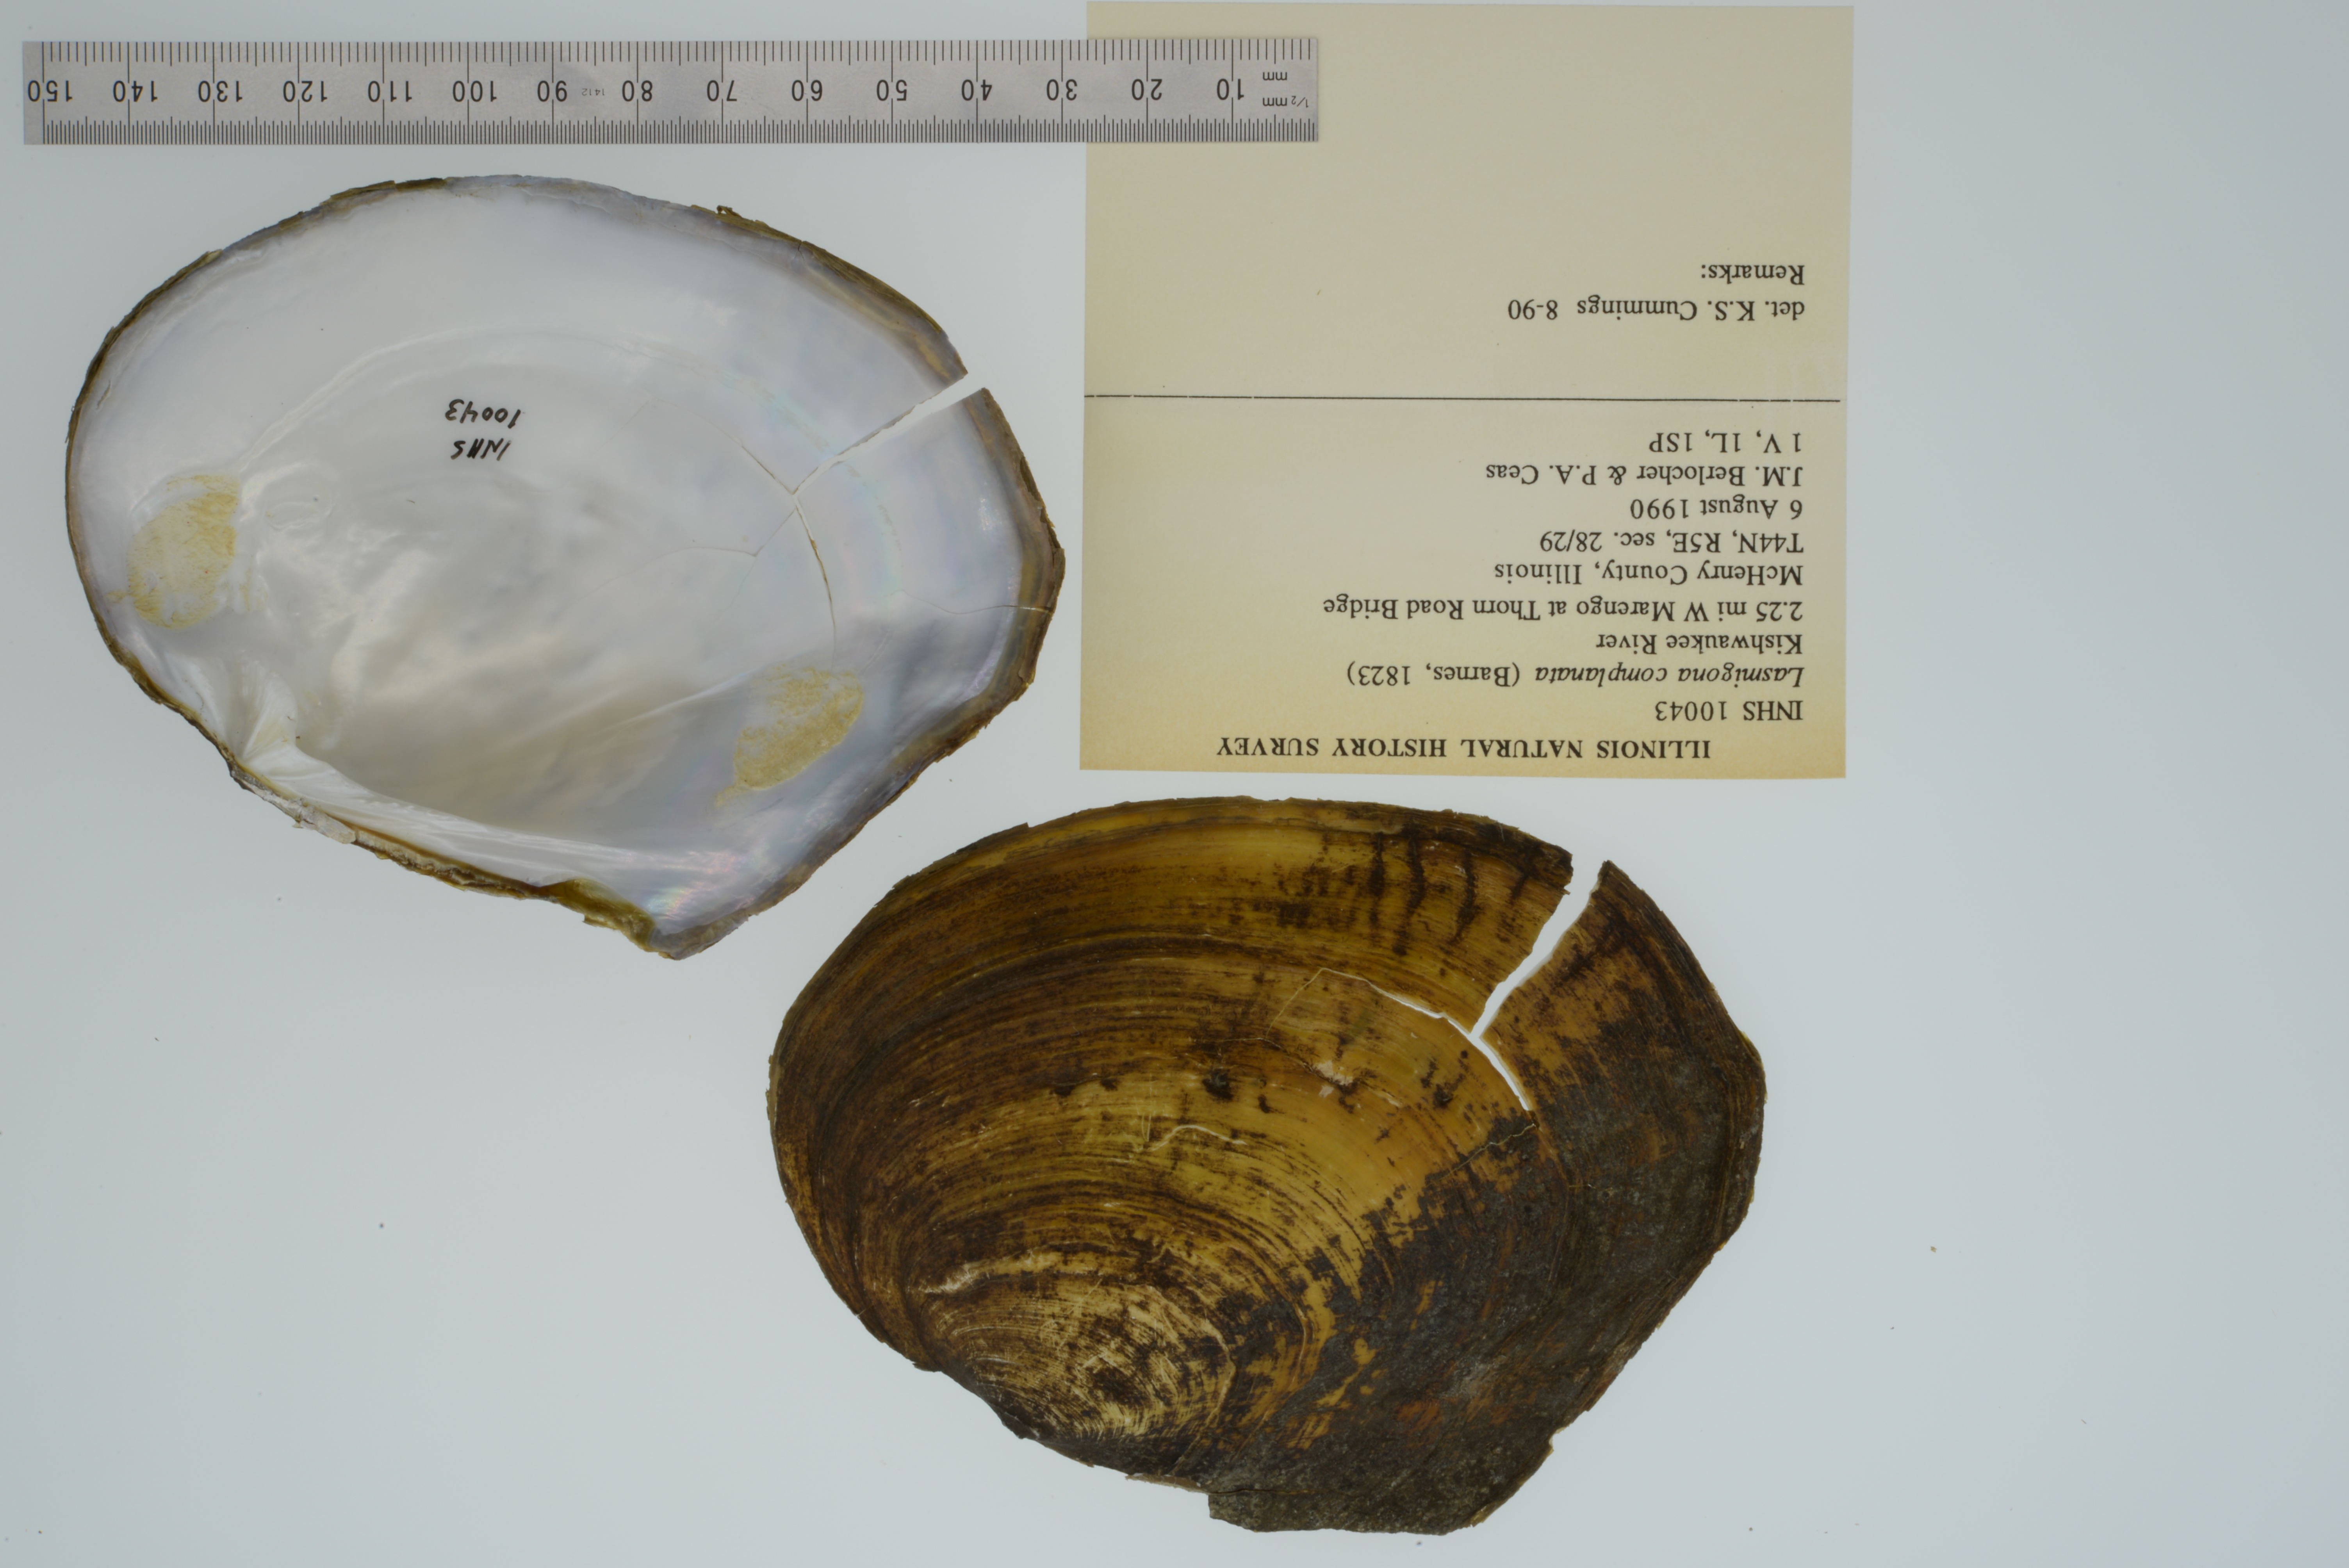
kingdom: Animalia
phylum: Mollusca
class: Bivalvia
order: Unionida
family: Unionidae
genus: Lasmigona
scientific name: Lasmigona complanata
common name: White heelsplitter
